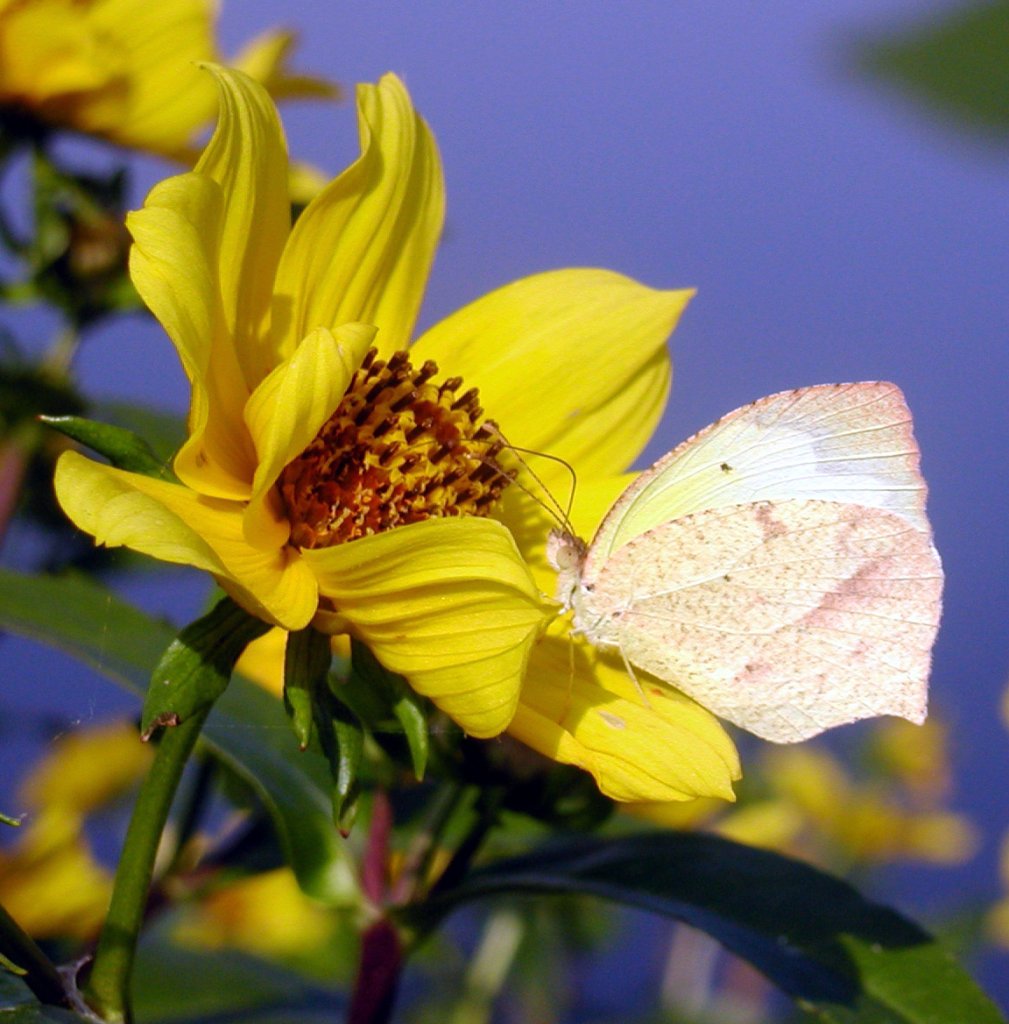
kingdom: Animalia
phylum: Arthropoda
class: Insecta
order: Lepidoptera
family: Pieridae
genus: Eurema
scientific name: Eurema mexicana
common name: Mexican Yellow
